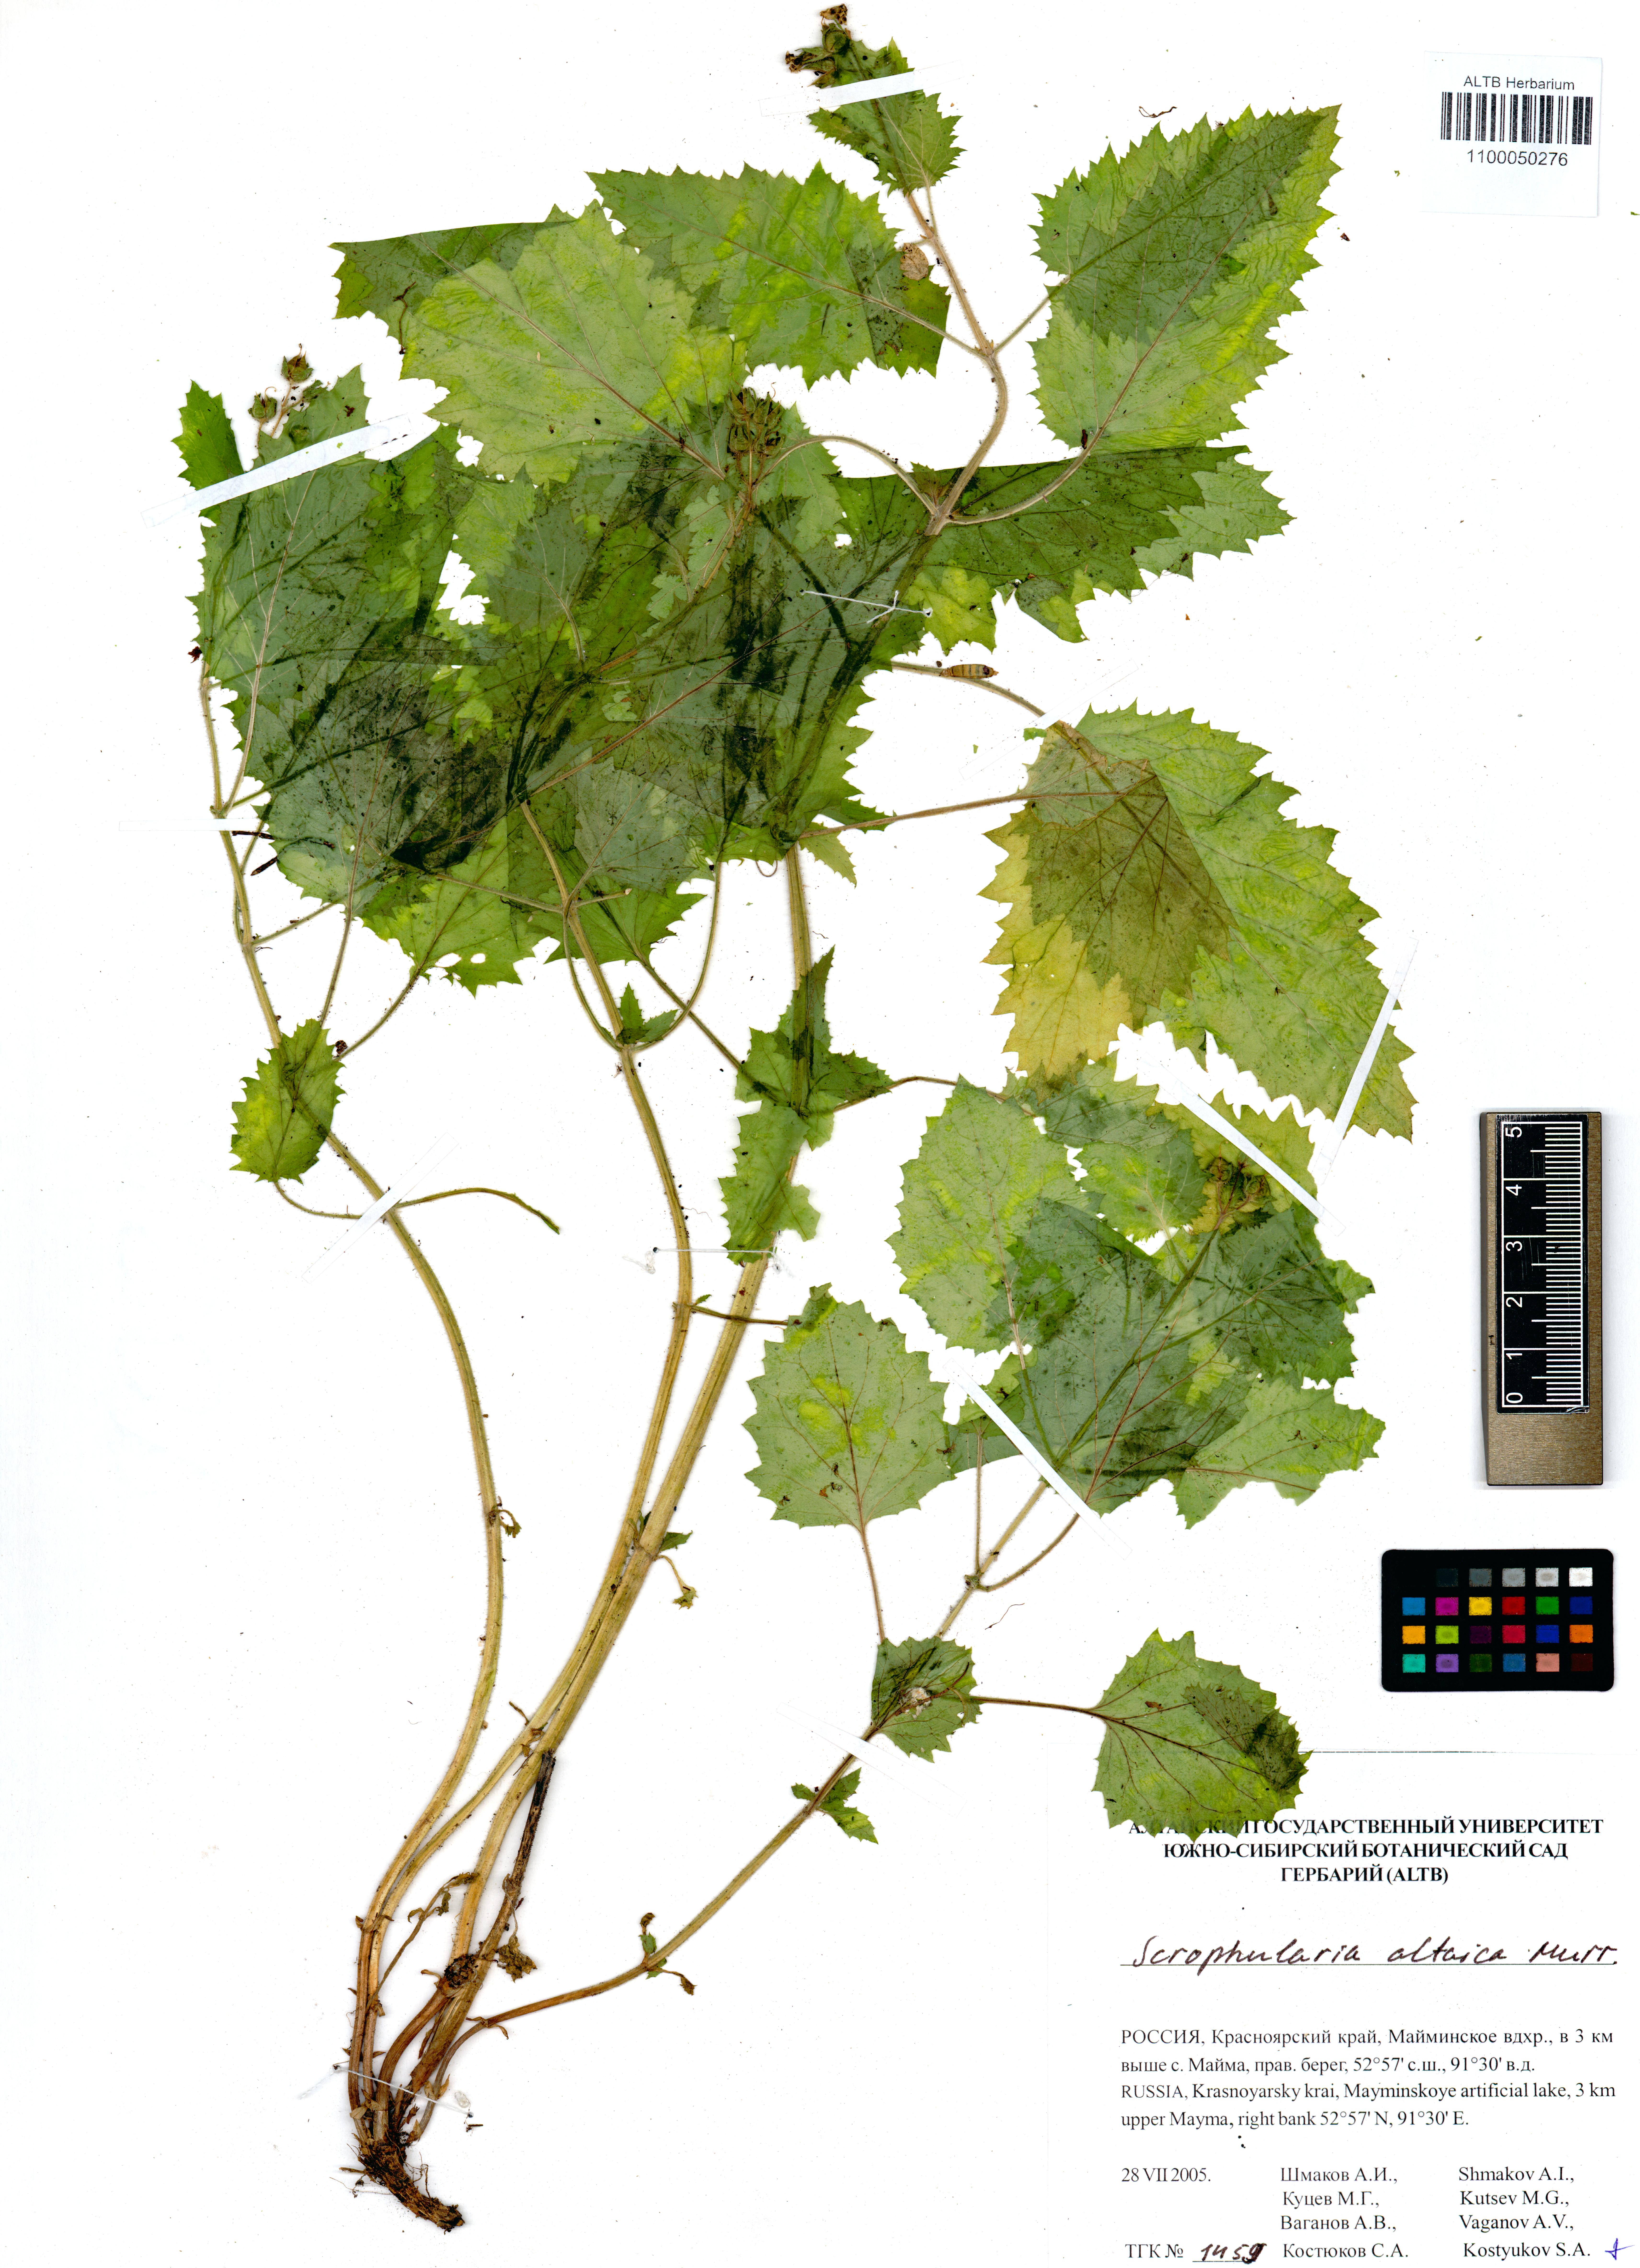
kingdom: Plantae
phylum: Tracheophyta
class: Magnoliopsida
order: Lamiales
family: Scrophulariaceae
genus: Scrophularia
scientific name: Scrophularia altaica
